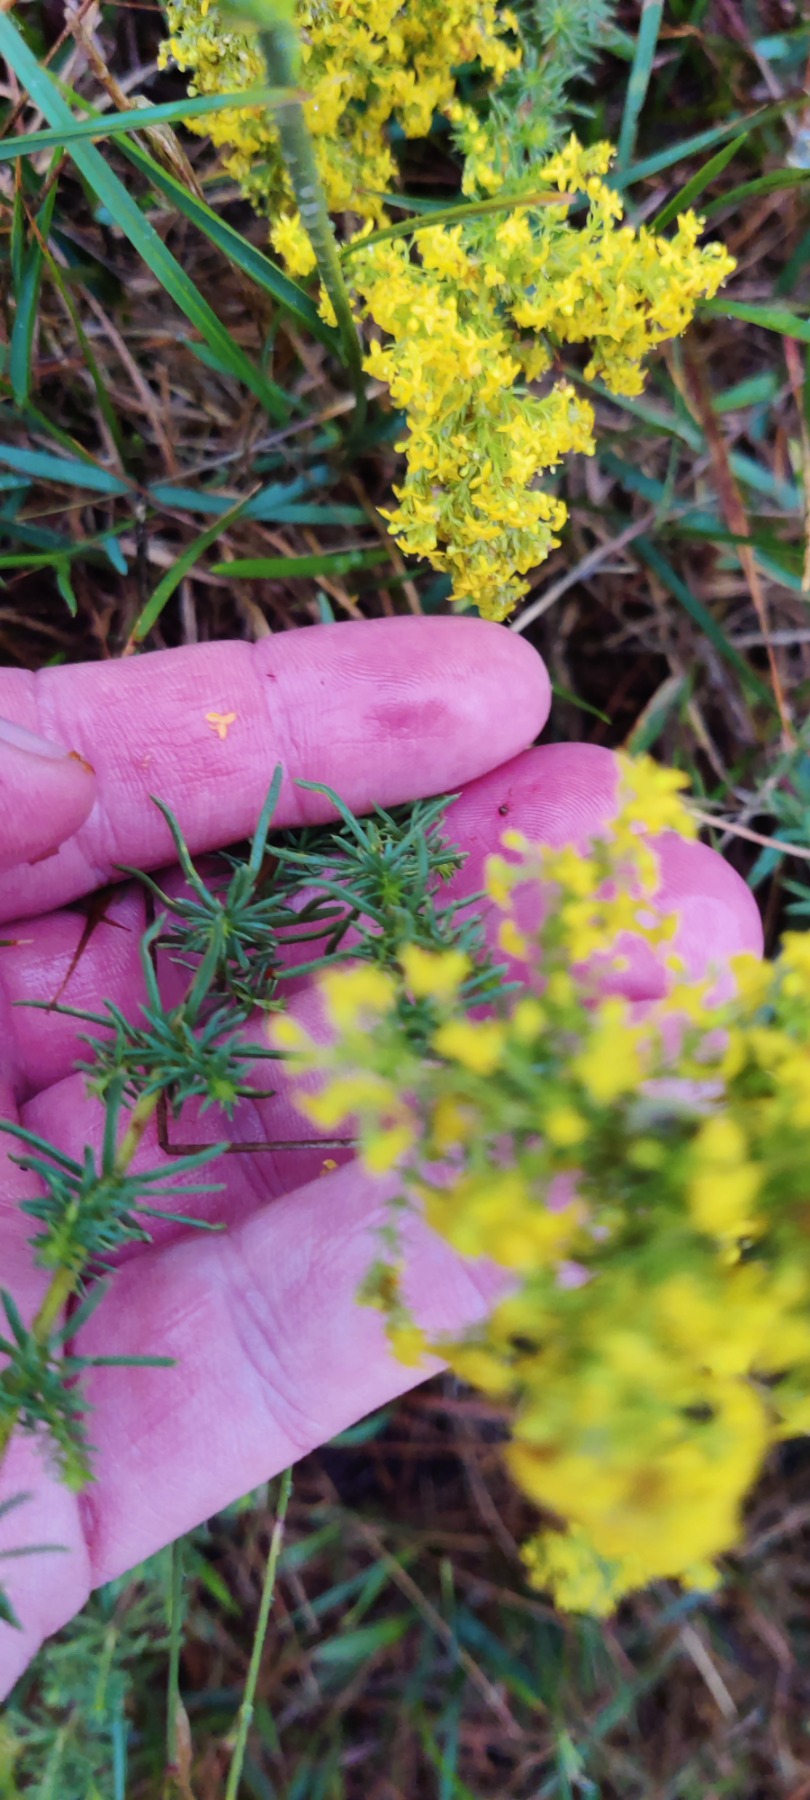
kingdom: Plantae
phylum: Tracheophyta
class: Magnoliopsida
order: Gentianales
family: Rubiaceae
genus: Galium
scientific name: Galium verum
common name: Gul snerre
